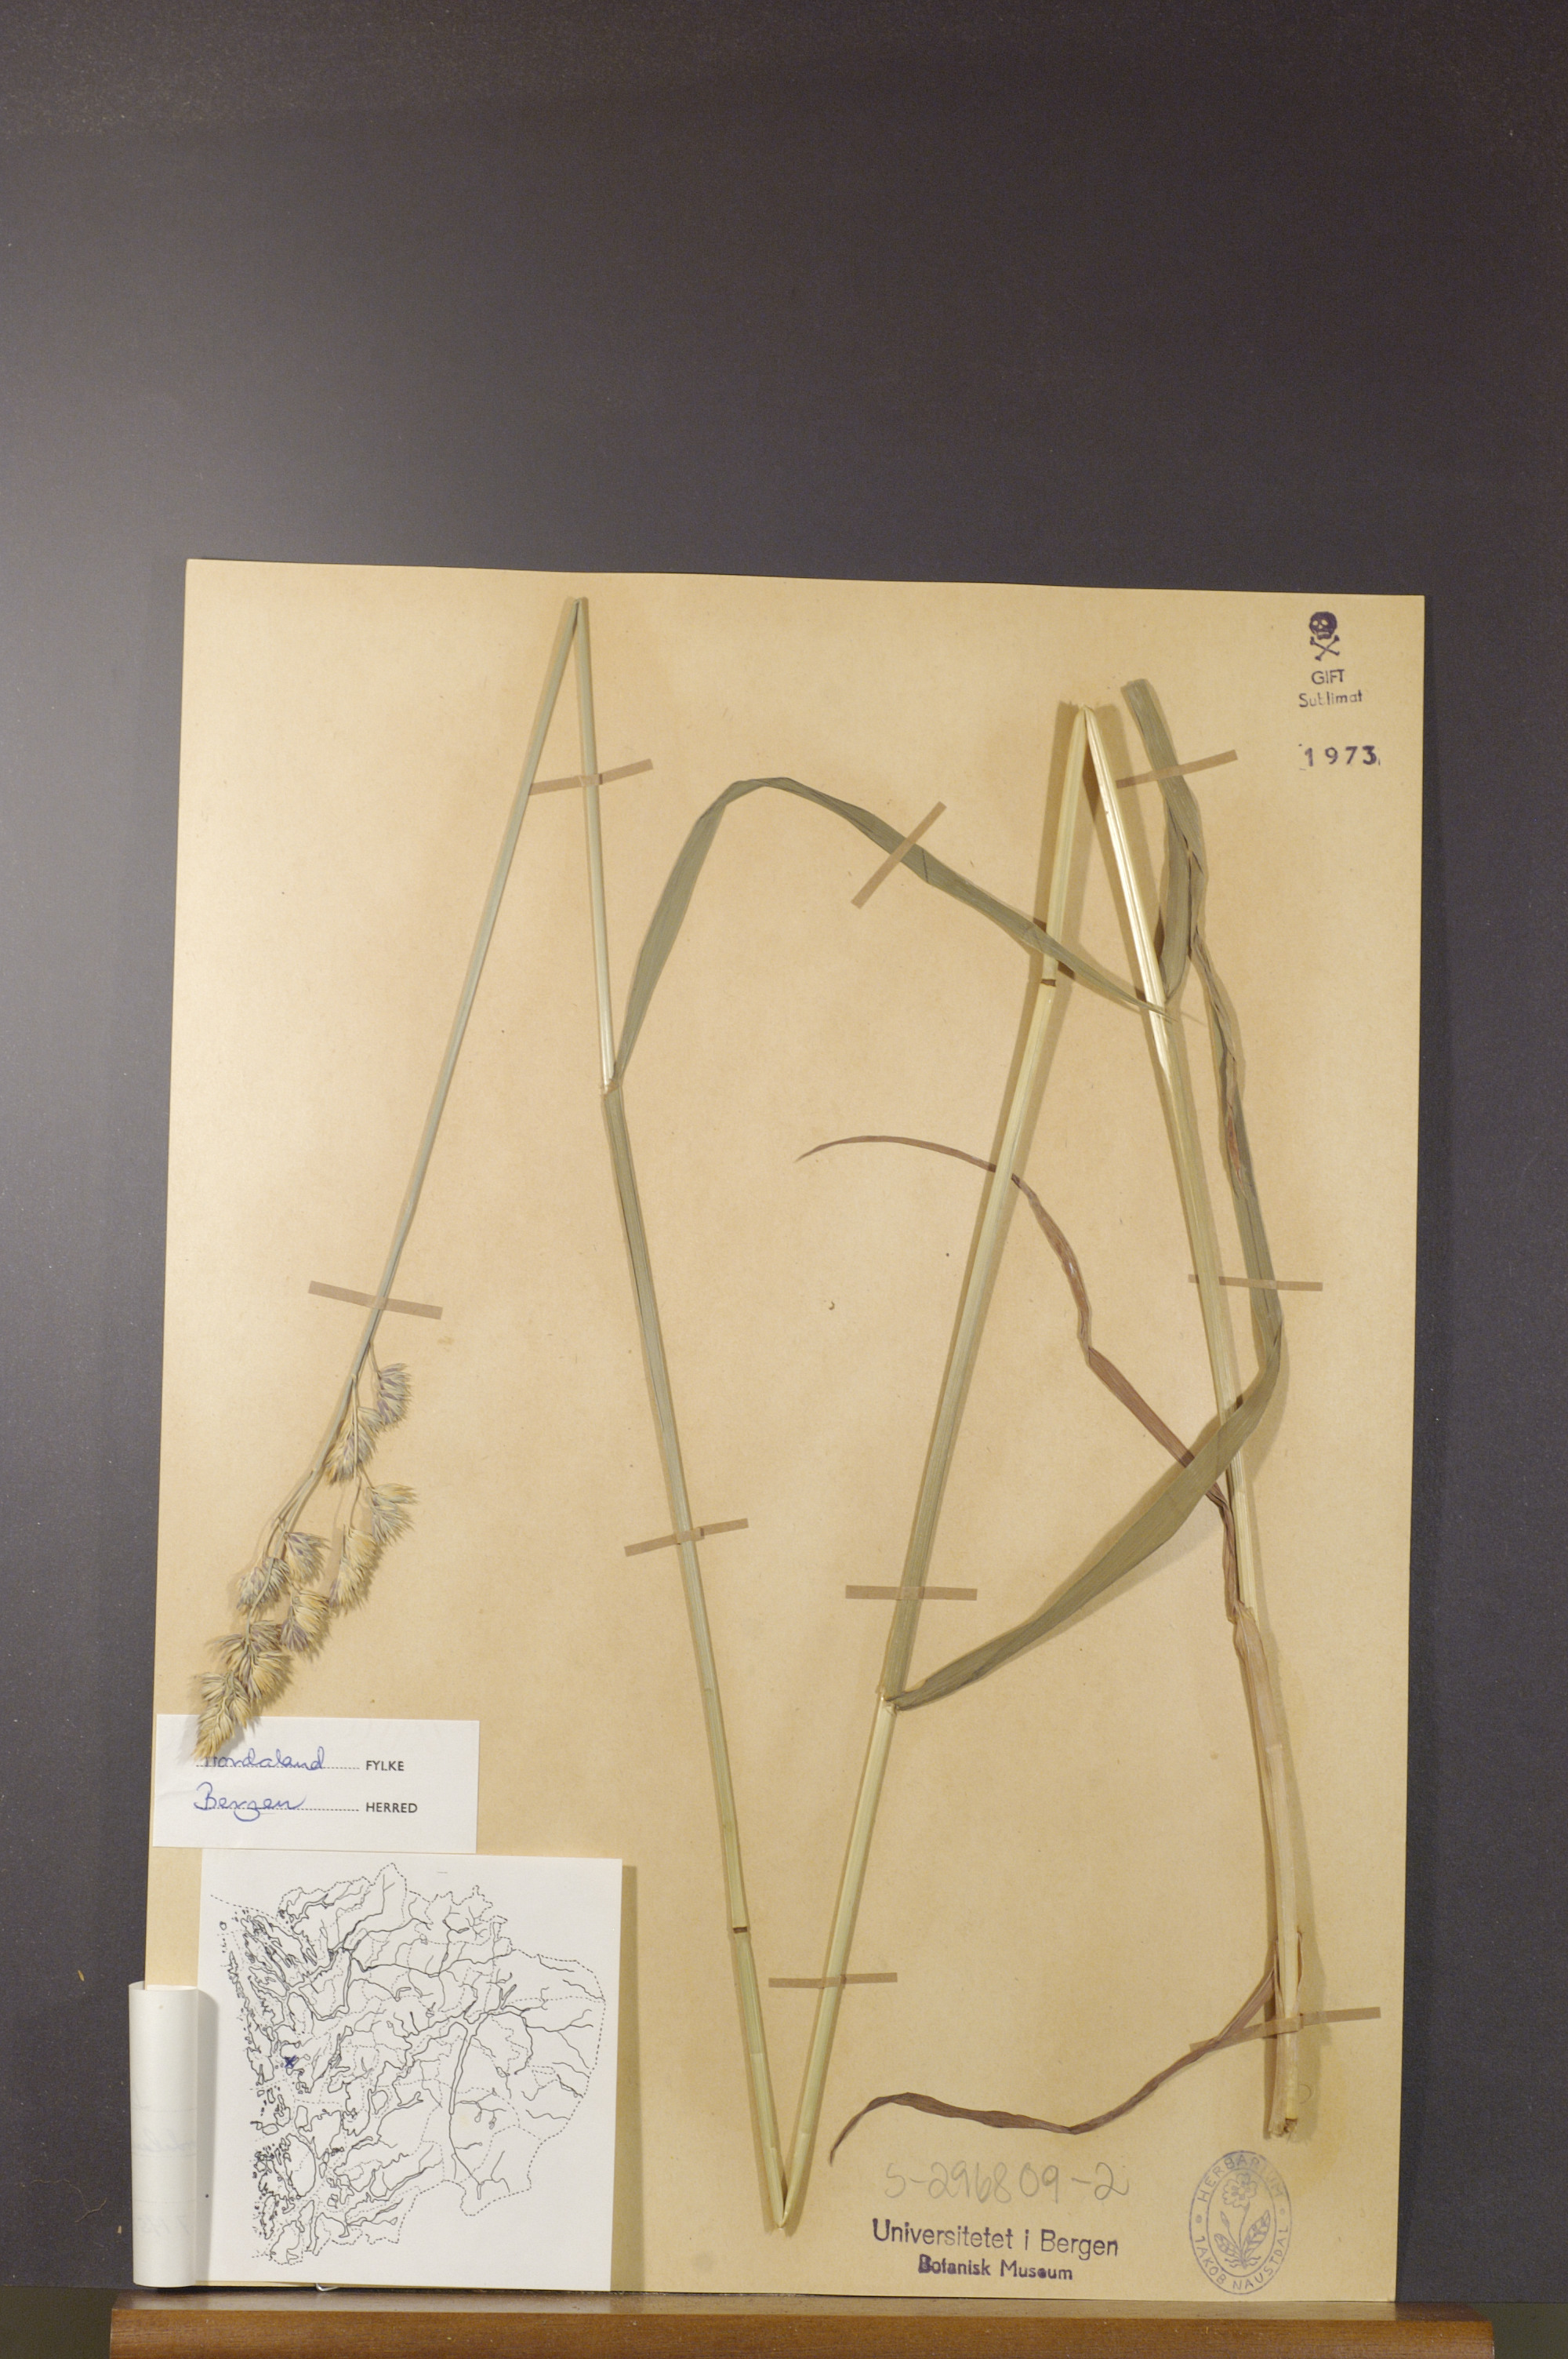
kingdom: Plantae
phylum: Tracheophyta
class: Liliopsida
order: Poales
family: Poaceae
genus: Dactylis
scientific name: Dactylis glomerata
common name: Orchardgrass
